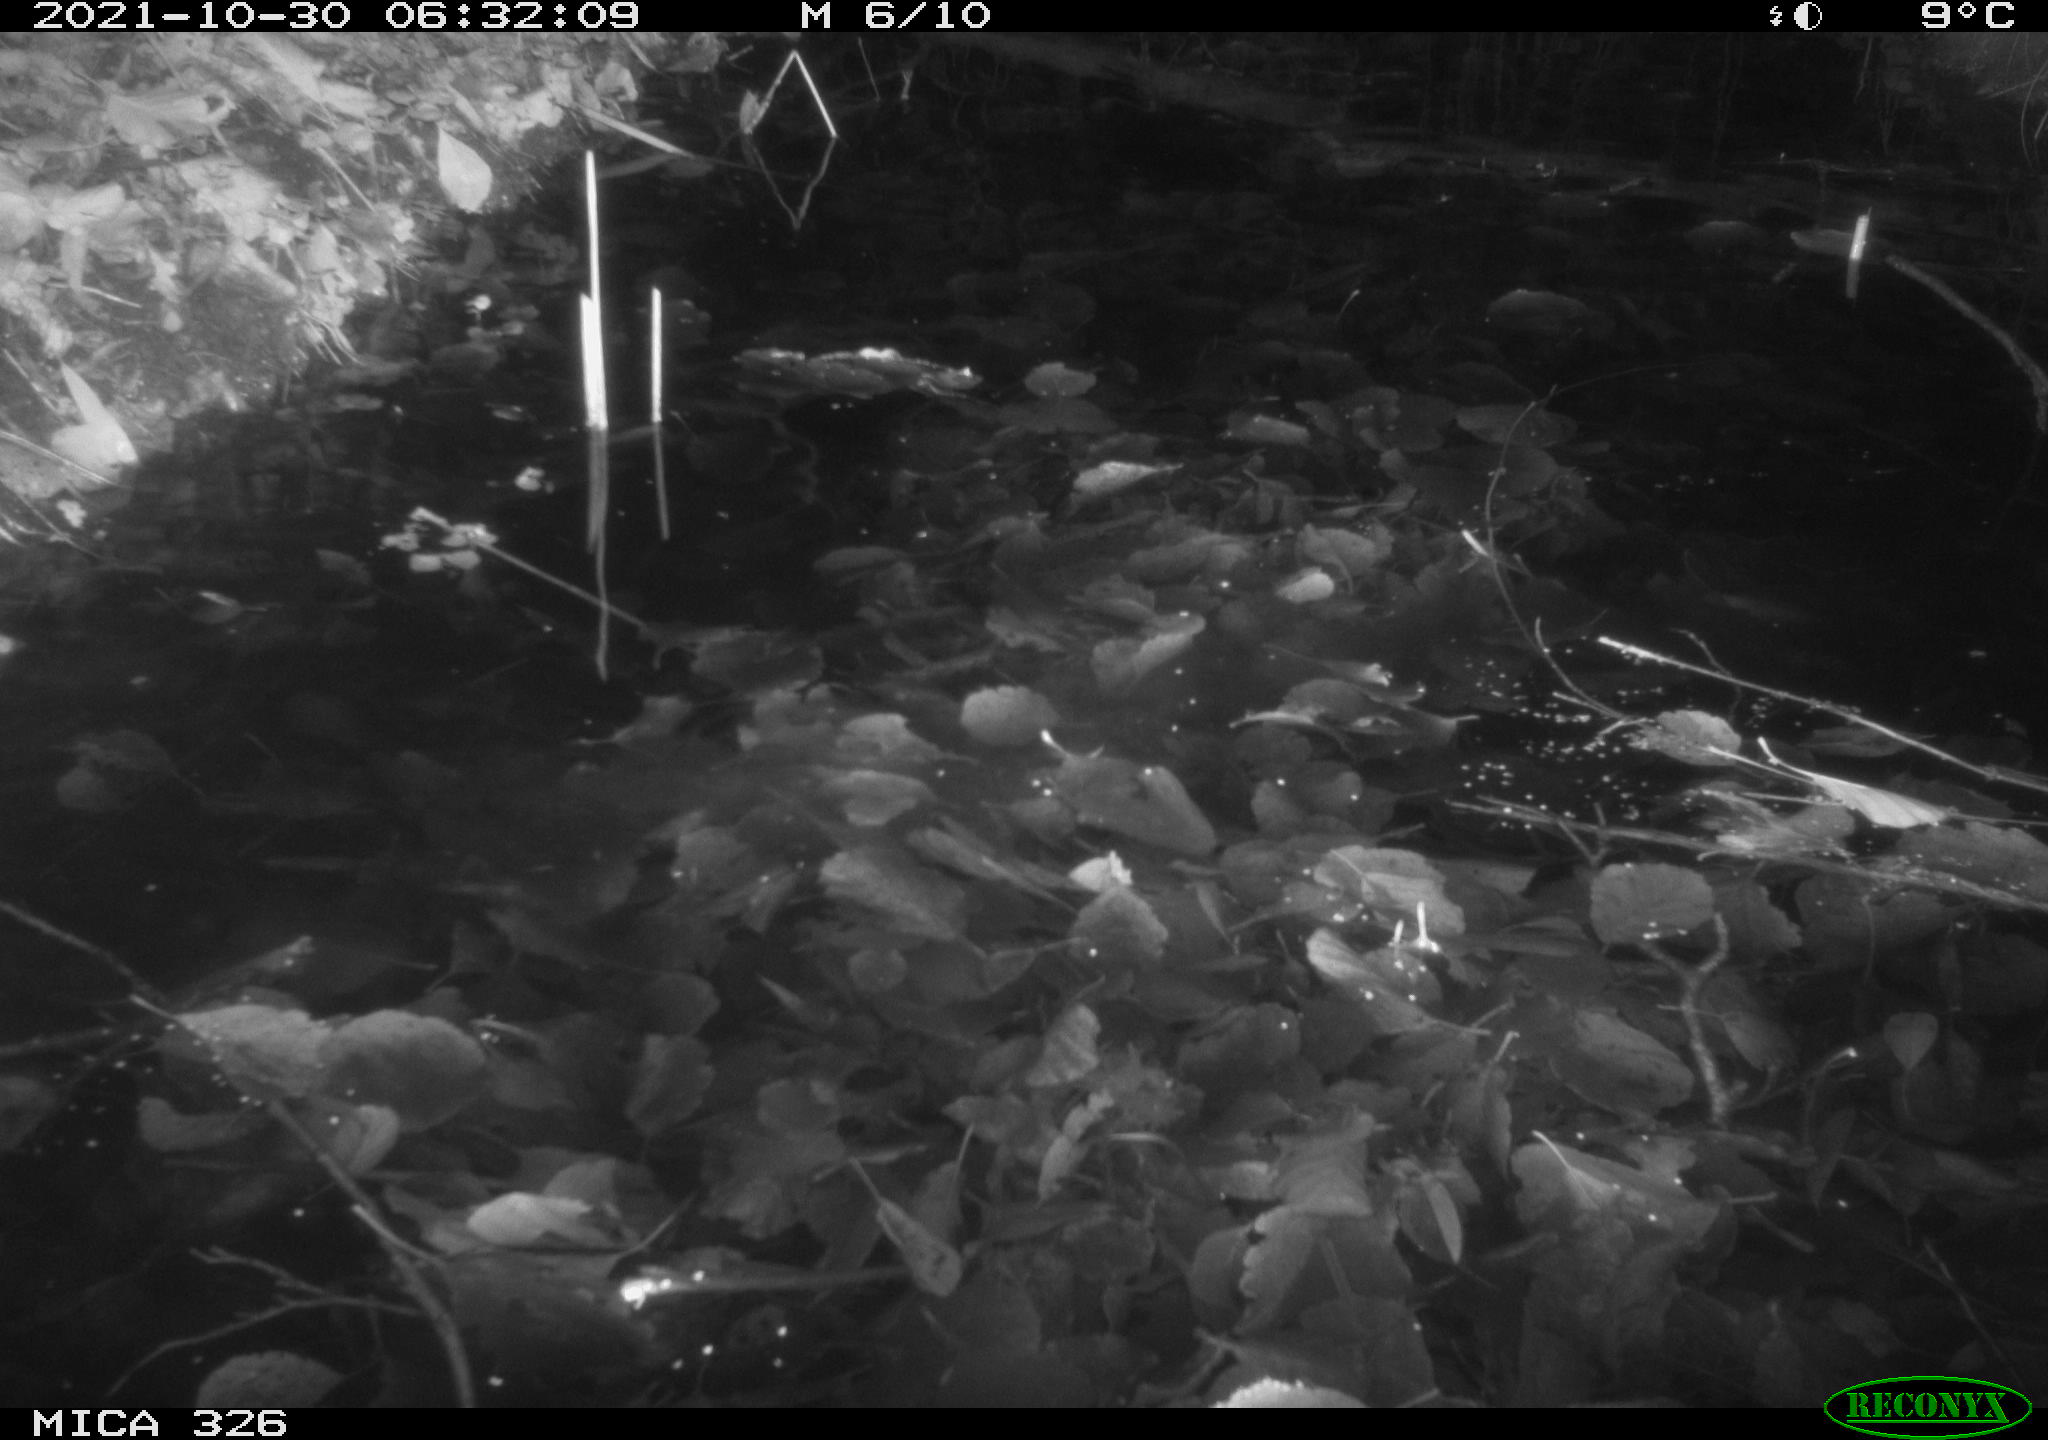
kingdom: Animalia
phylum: Chordata
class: Mammalia
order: Rodentia
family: Muridae
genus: Rattus
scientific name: Rattus norvegicus
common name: Brown rat
